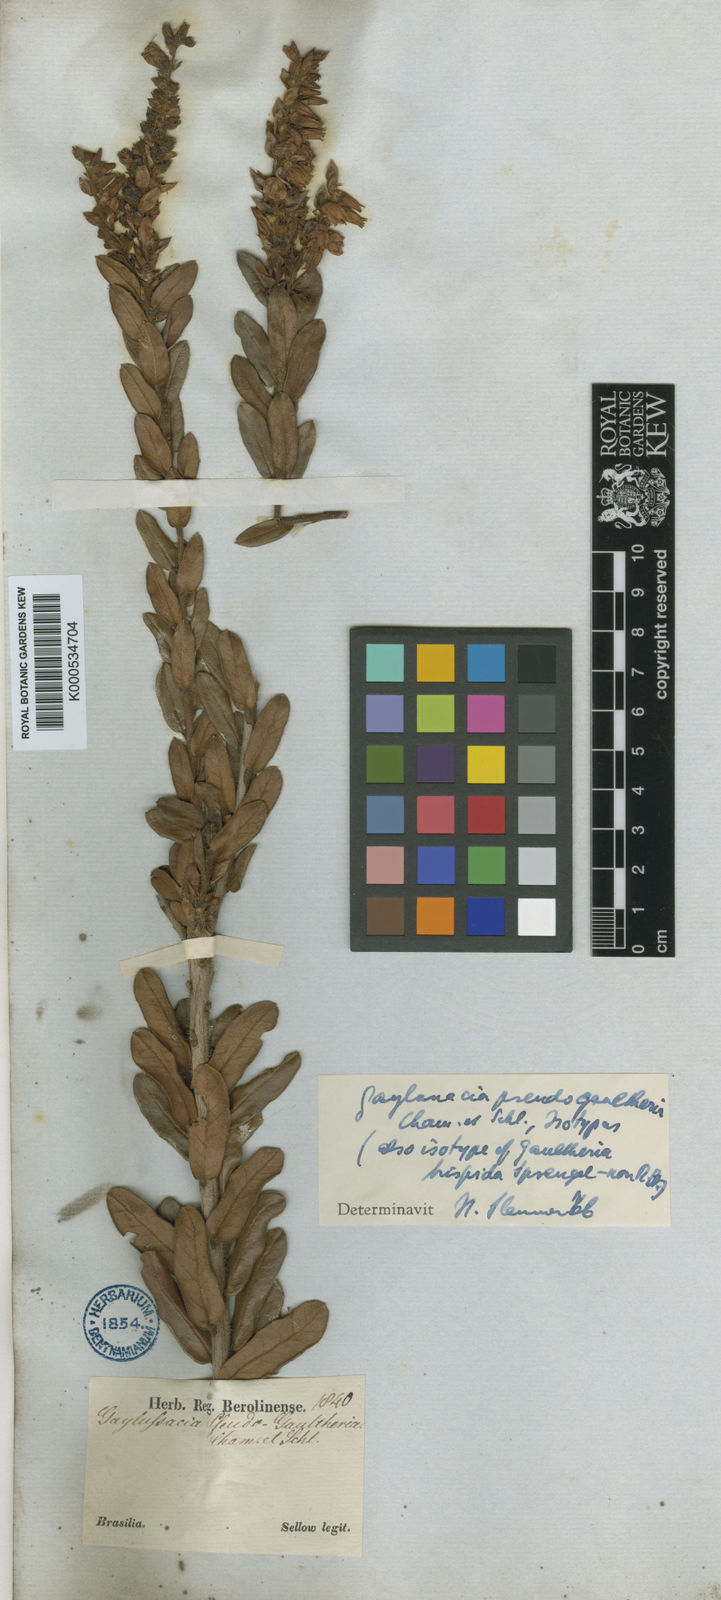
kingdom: Plantae
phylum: Tracheophyta
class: Magnoliopsida
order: Ericales
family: Ericaceae
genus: Gaylussacia
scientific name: Gaylussacia pseudogaultheria
